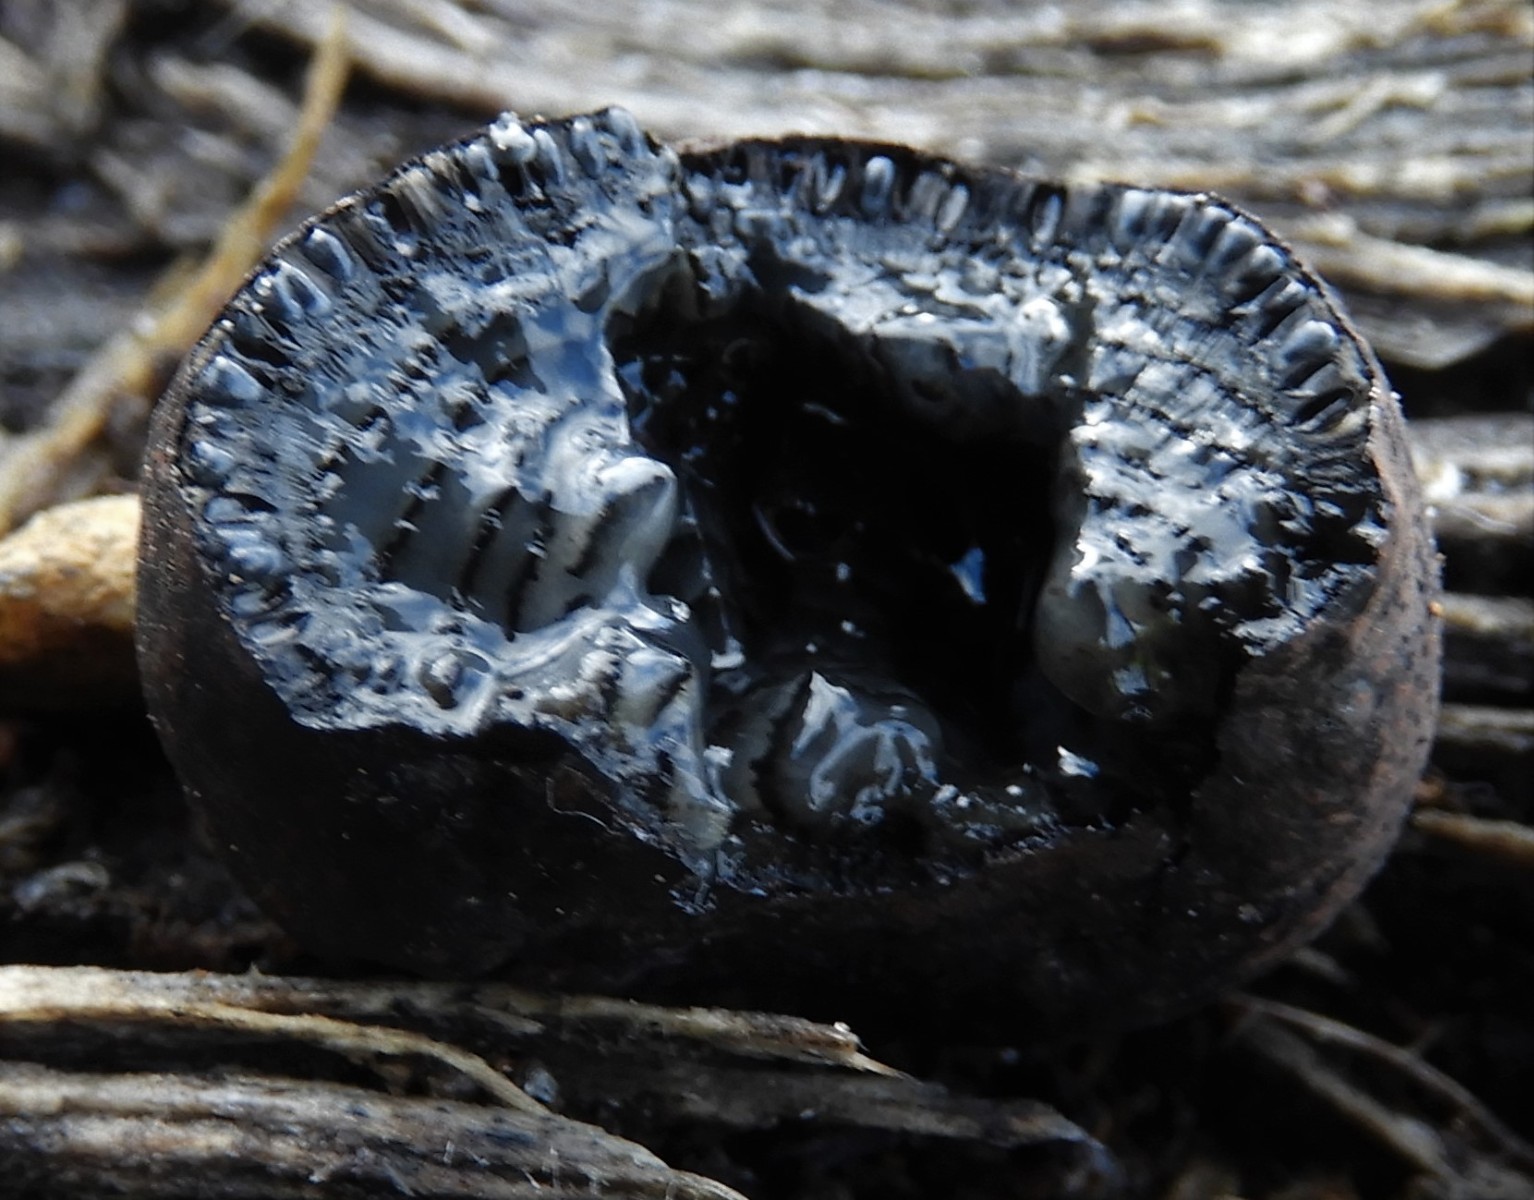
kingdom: Fungi
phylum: Ascomycota
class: Sordariomycetes
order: Xylariales
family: Hypoxylaceae
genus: Daldinia
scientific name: Daldinia vernicosa
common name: gele-bæltekugle
